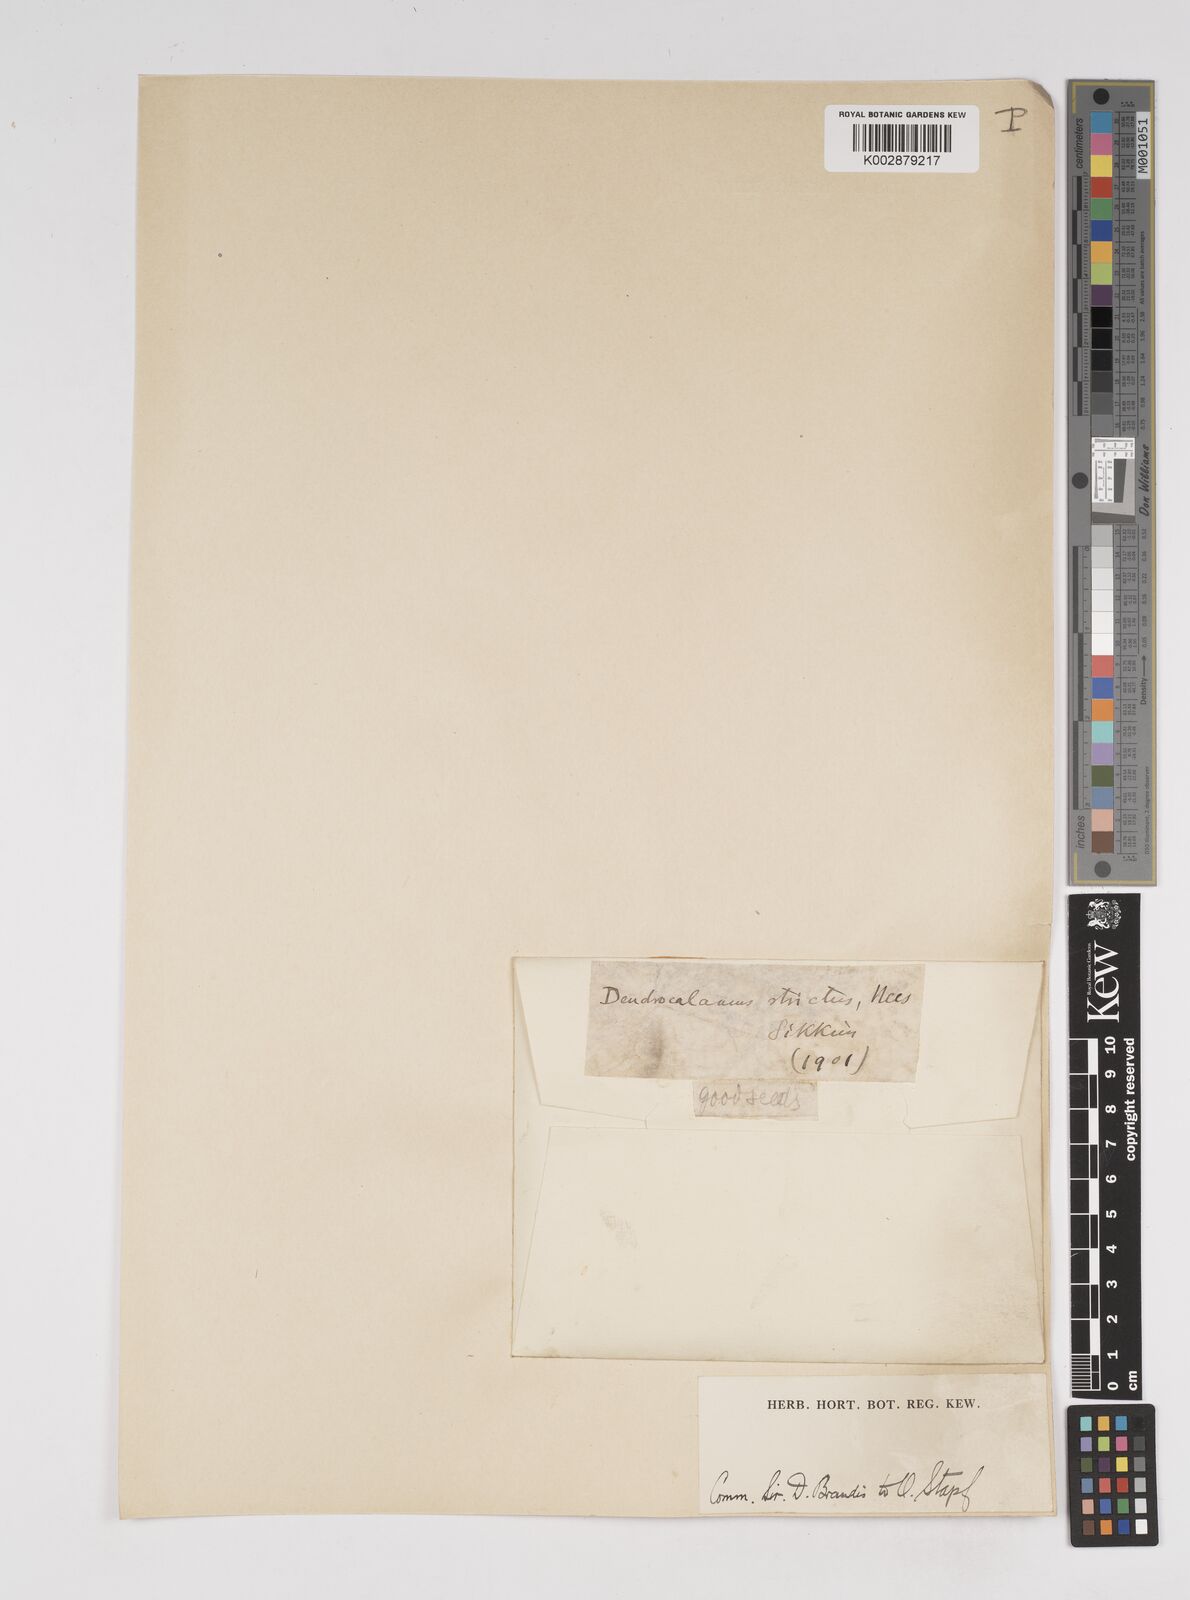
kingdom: Plantae
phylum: Tracheophyta
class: Liliopsida
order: Poales
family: Poaceae
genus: Dendrocalamus
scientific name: Dendrocalamus strictus
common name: Male bamboo
